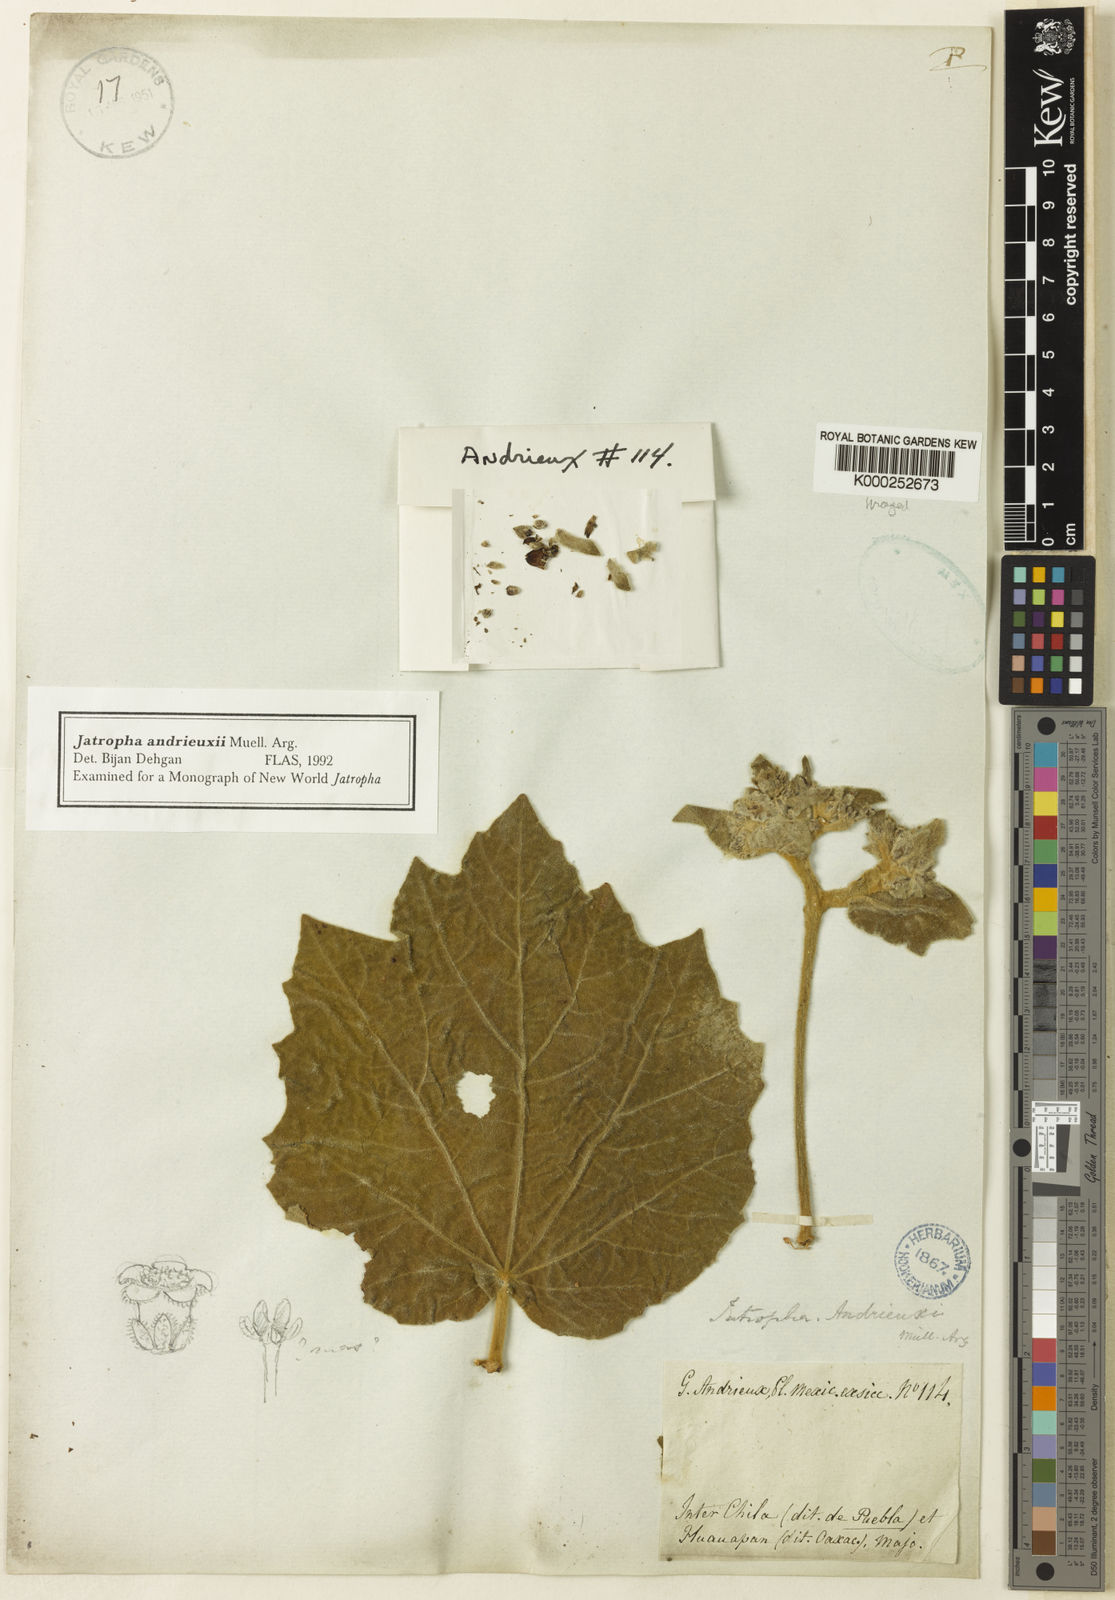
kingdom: Plantae
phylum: Tracheophyta
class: Magnoliopsida
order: Malpighiales
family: Euphorbiaceae
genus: Jatropha
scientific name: Jatropha
